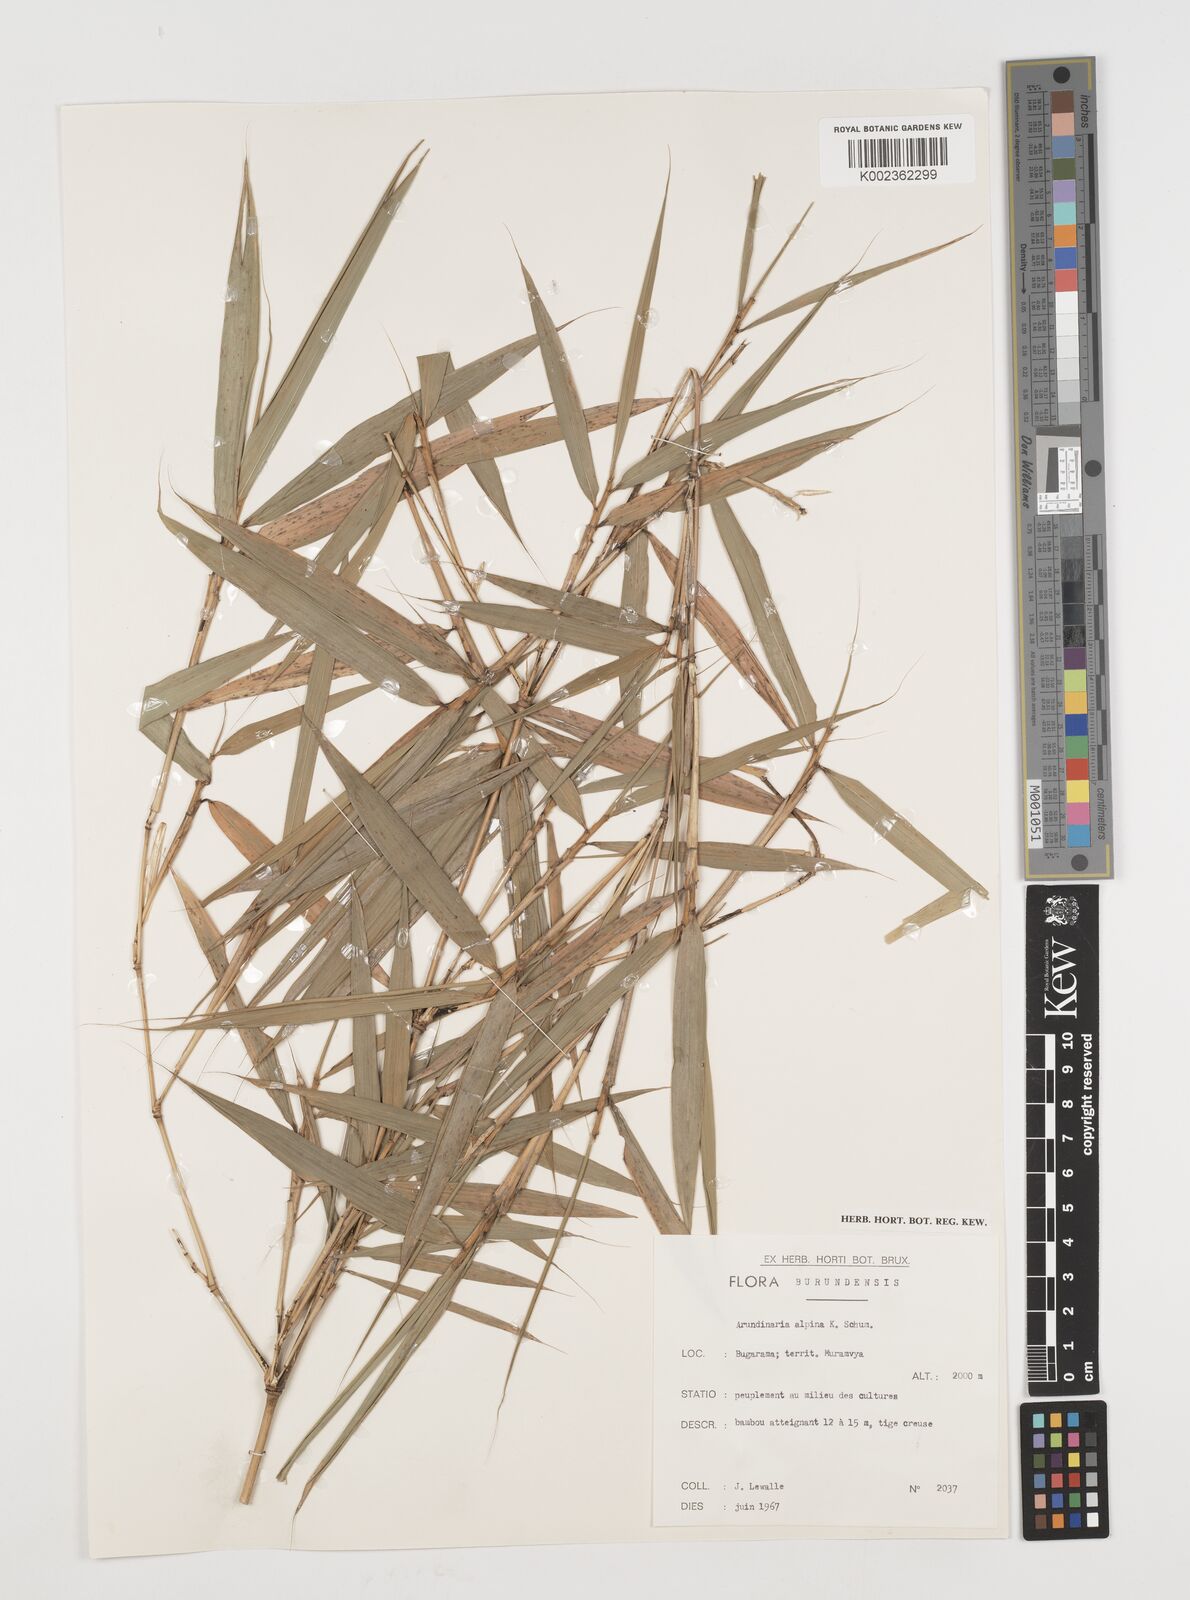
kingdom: Plantae
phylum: Tracheophyta
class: Liliopsida
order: Poales
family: Poaceae
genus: Oldeania
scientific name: Oldeania alpina
